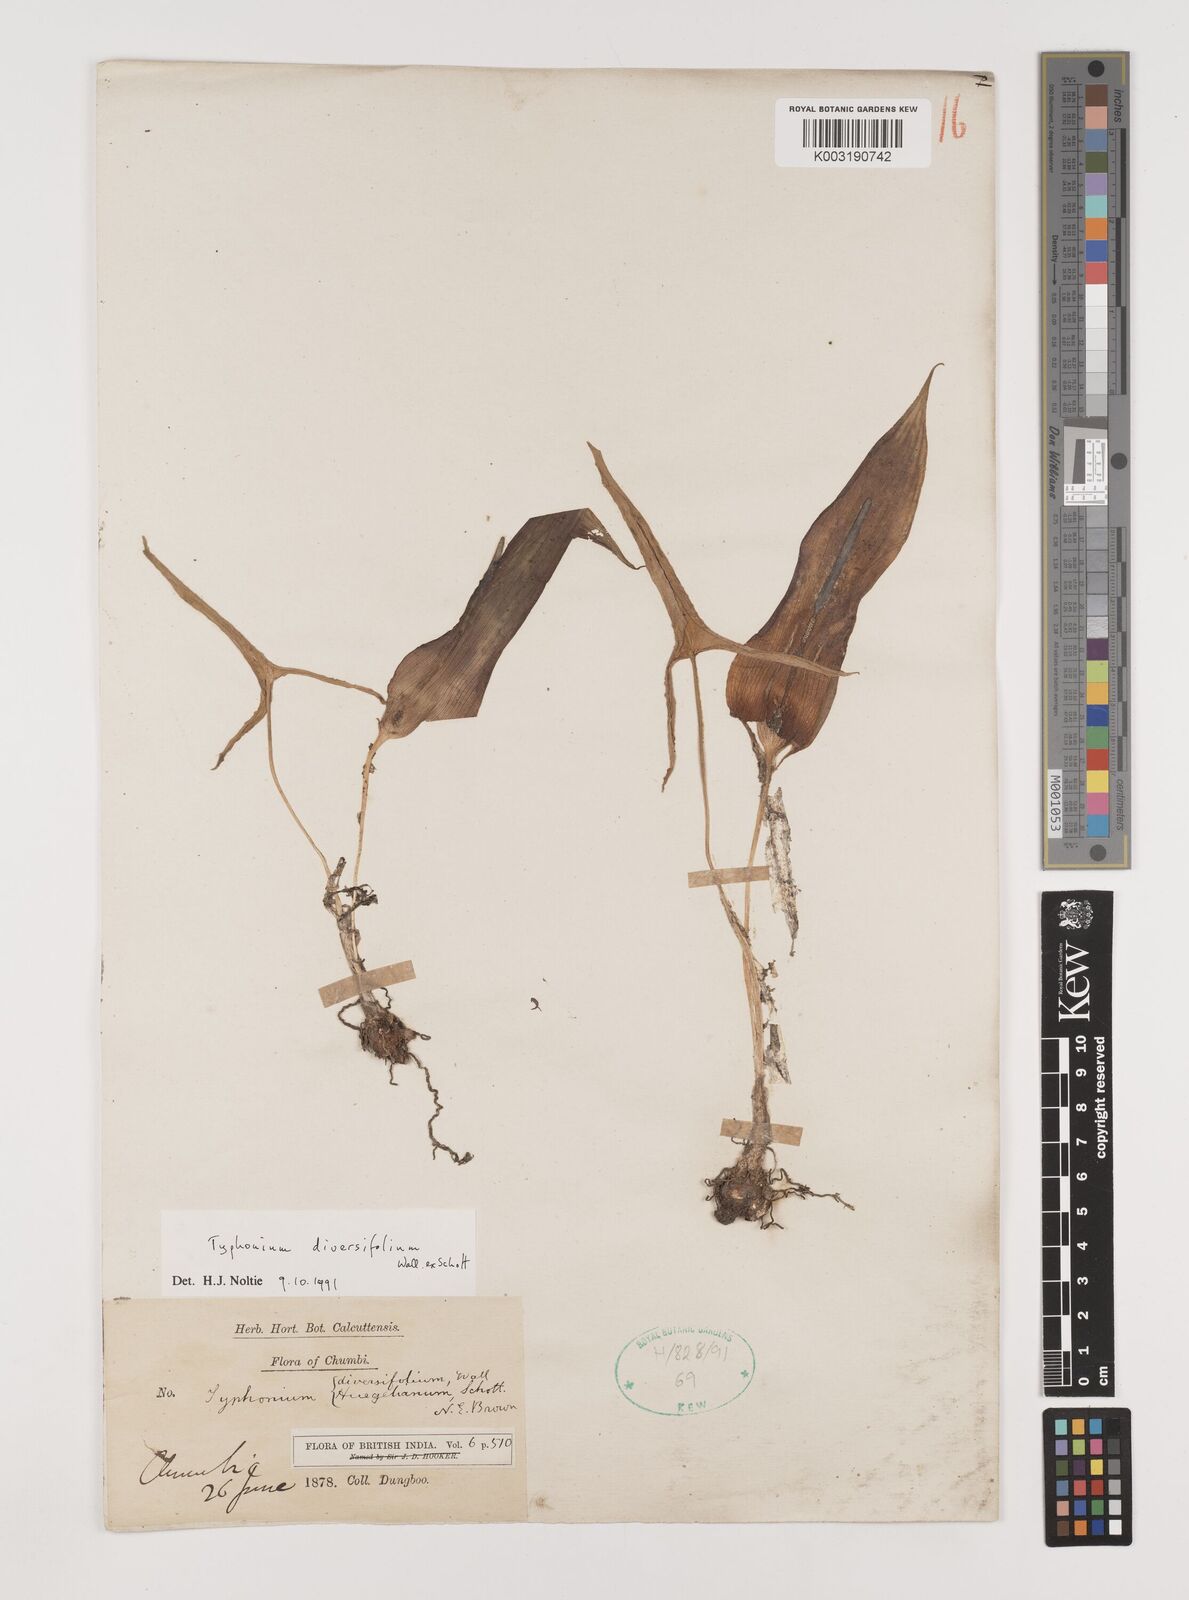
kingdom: Plantae
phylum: Tracheophyta
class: Liliopsida
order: Alismatales
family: Araceae
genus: Sauromatum
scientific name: Sauromatum diversifolium
